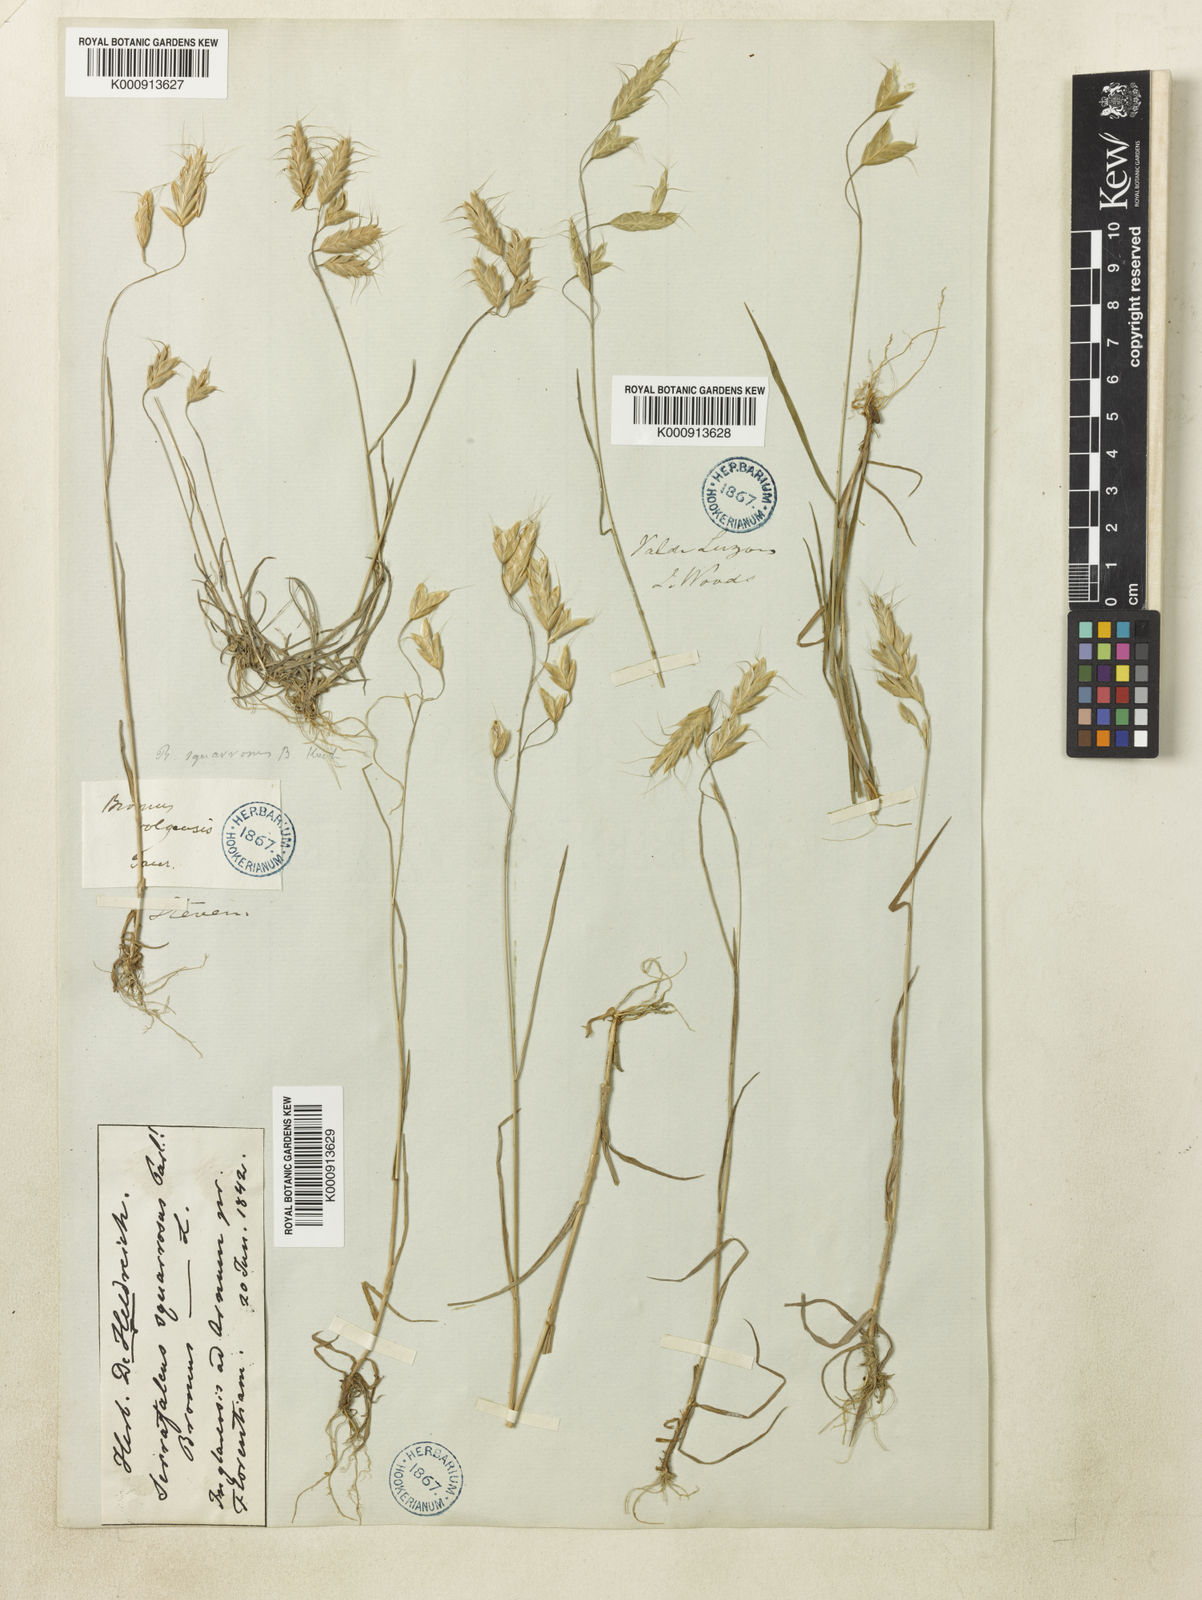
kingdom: Plantae
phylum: Tracheophyta
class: Liliopsida
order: Poales
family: Poaceae
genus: Bromus
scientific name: Bromus squarrosus
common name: Corn brome
